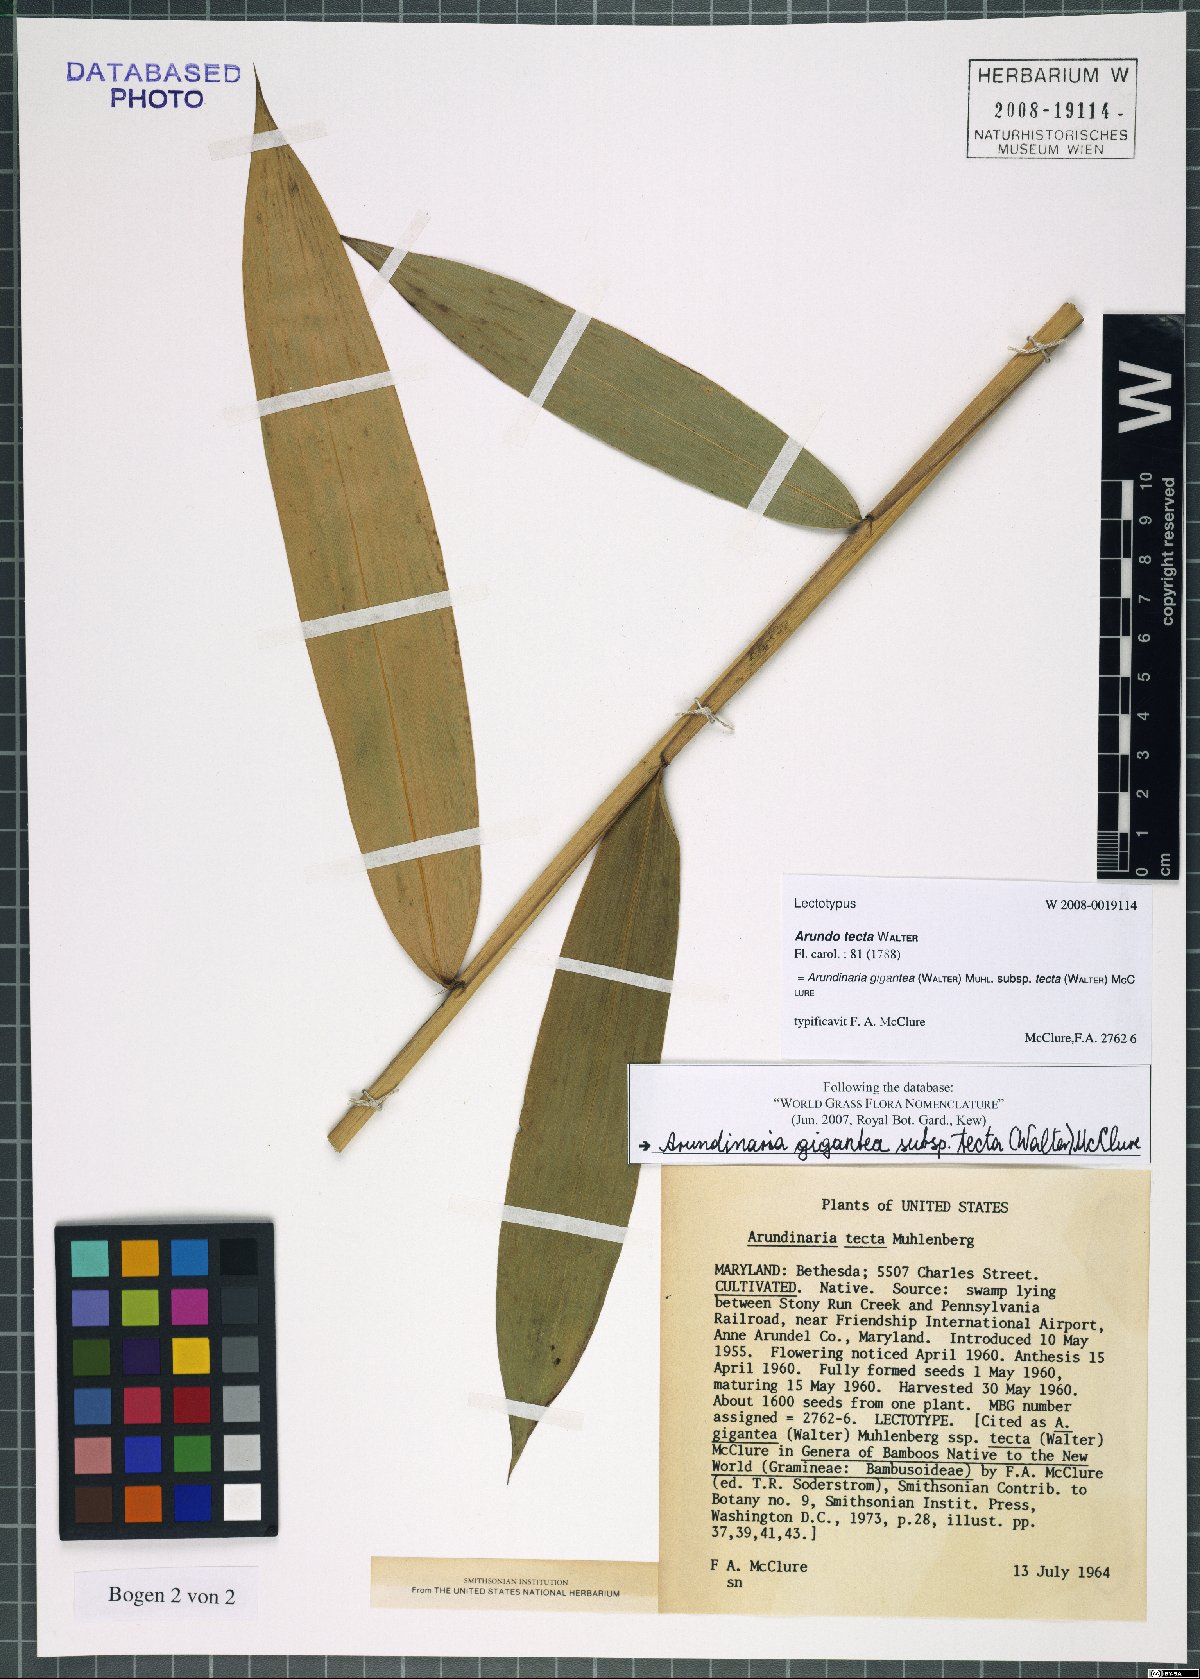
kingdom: Plantae
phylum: Tracheophyta
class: Liliopsida
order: Poales
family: Poaceae
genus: Arundinaria
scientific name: Arundinaria tecta
